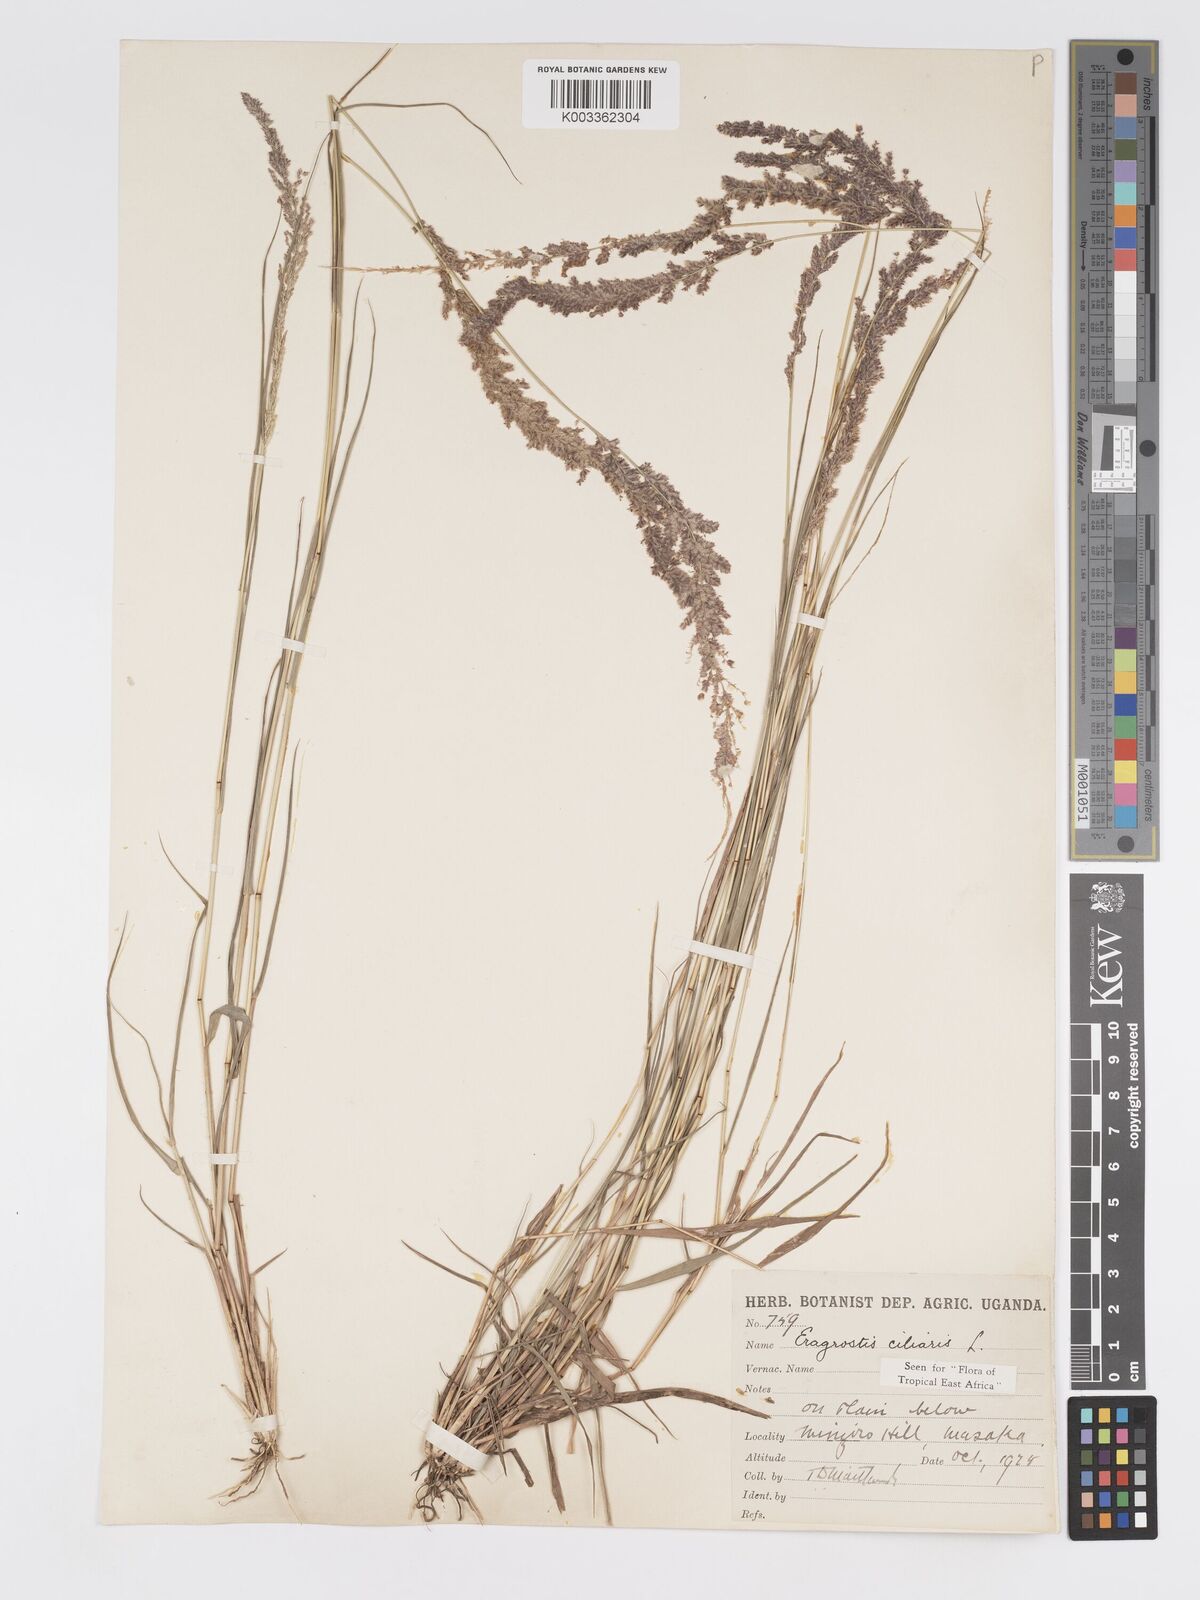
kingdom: Plantae
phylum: Tracheophyta
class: Liliopsida
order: Poales
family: Poaceae
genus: Eragrostis
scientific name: Eragrostis ciliaris
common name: Gophertail lovegrass
